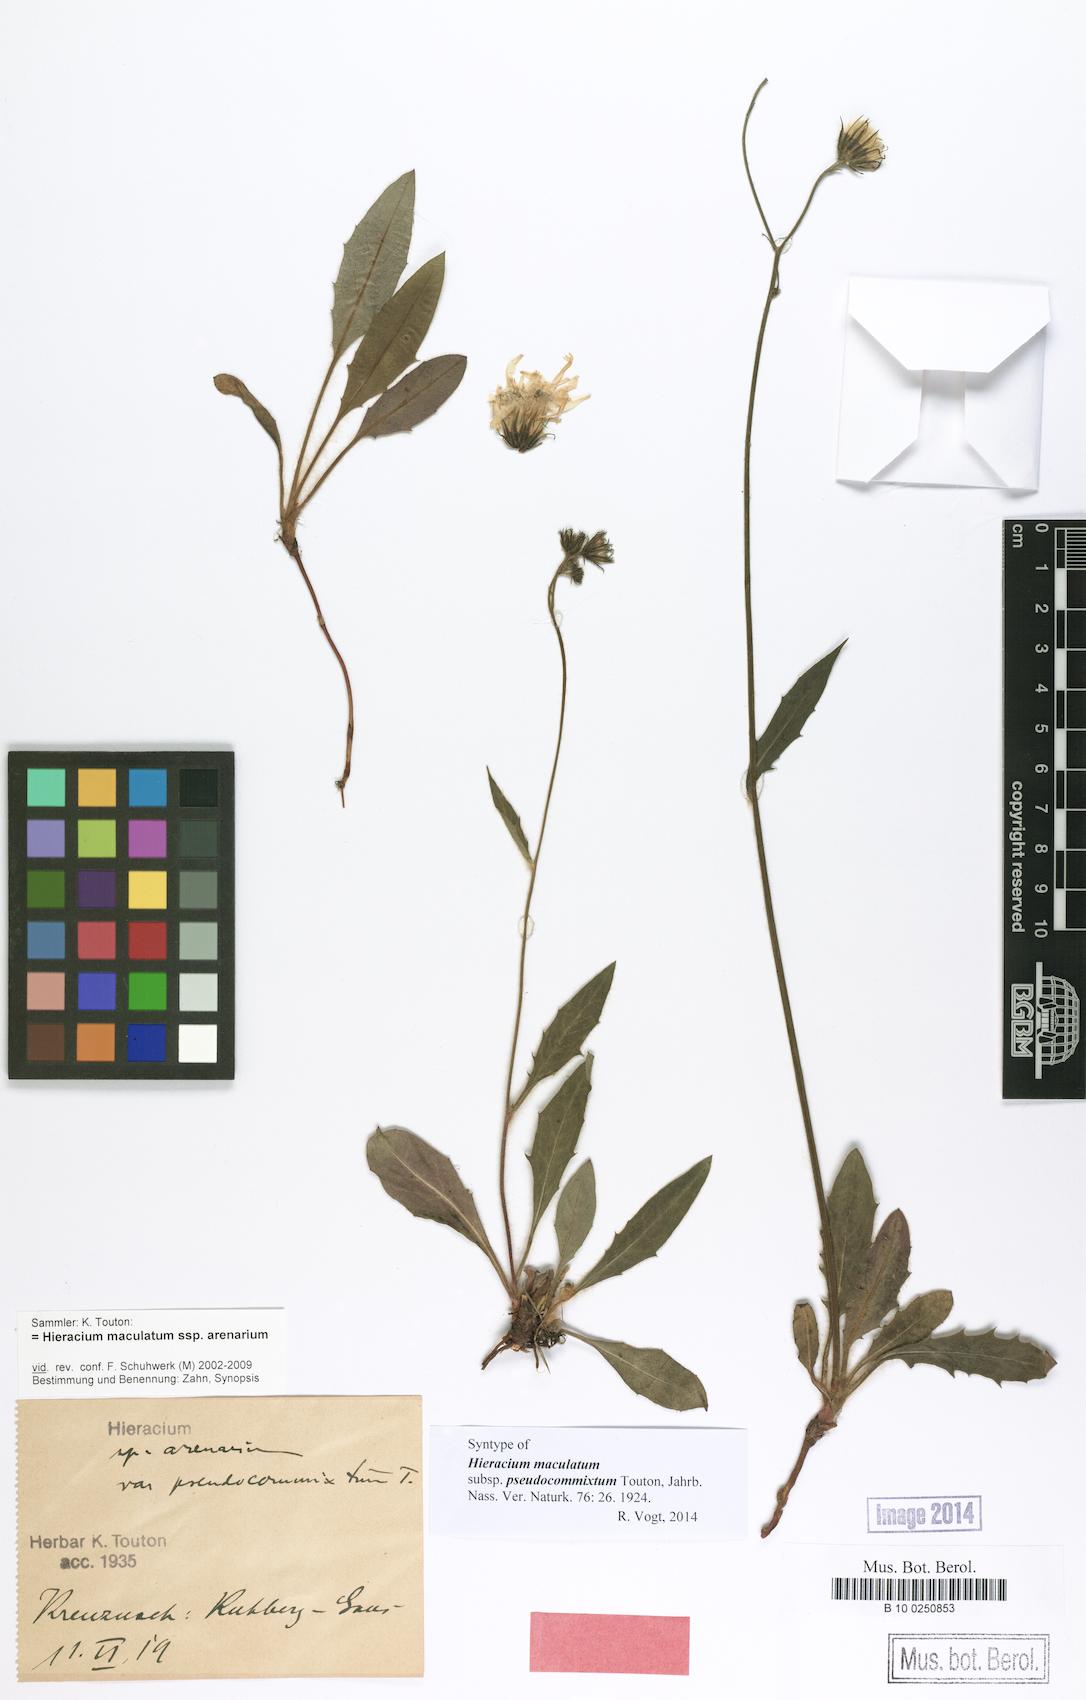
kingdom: Plantae
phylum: Tracheophyta
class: Magnoliopsida
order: Asterales
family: Asteraceae
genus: Hieracium
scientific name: Hieracium maculatum
